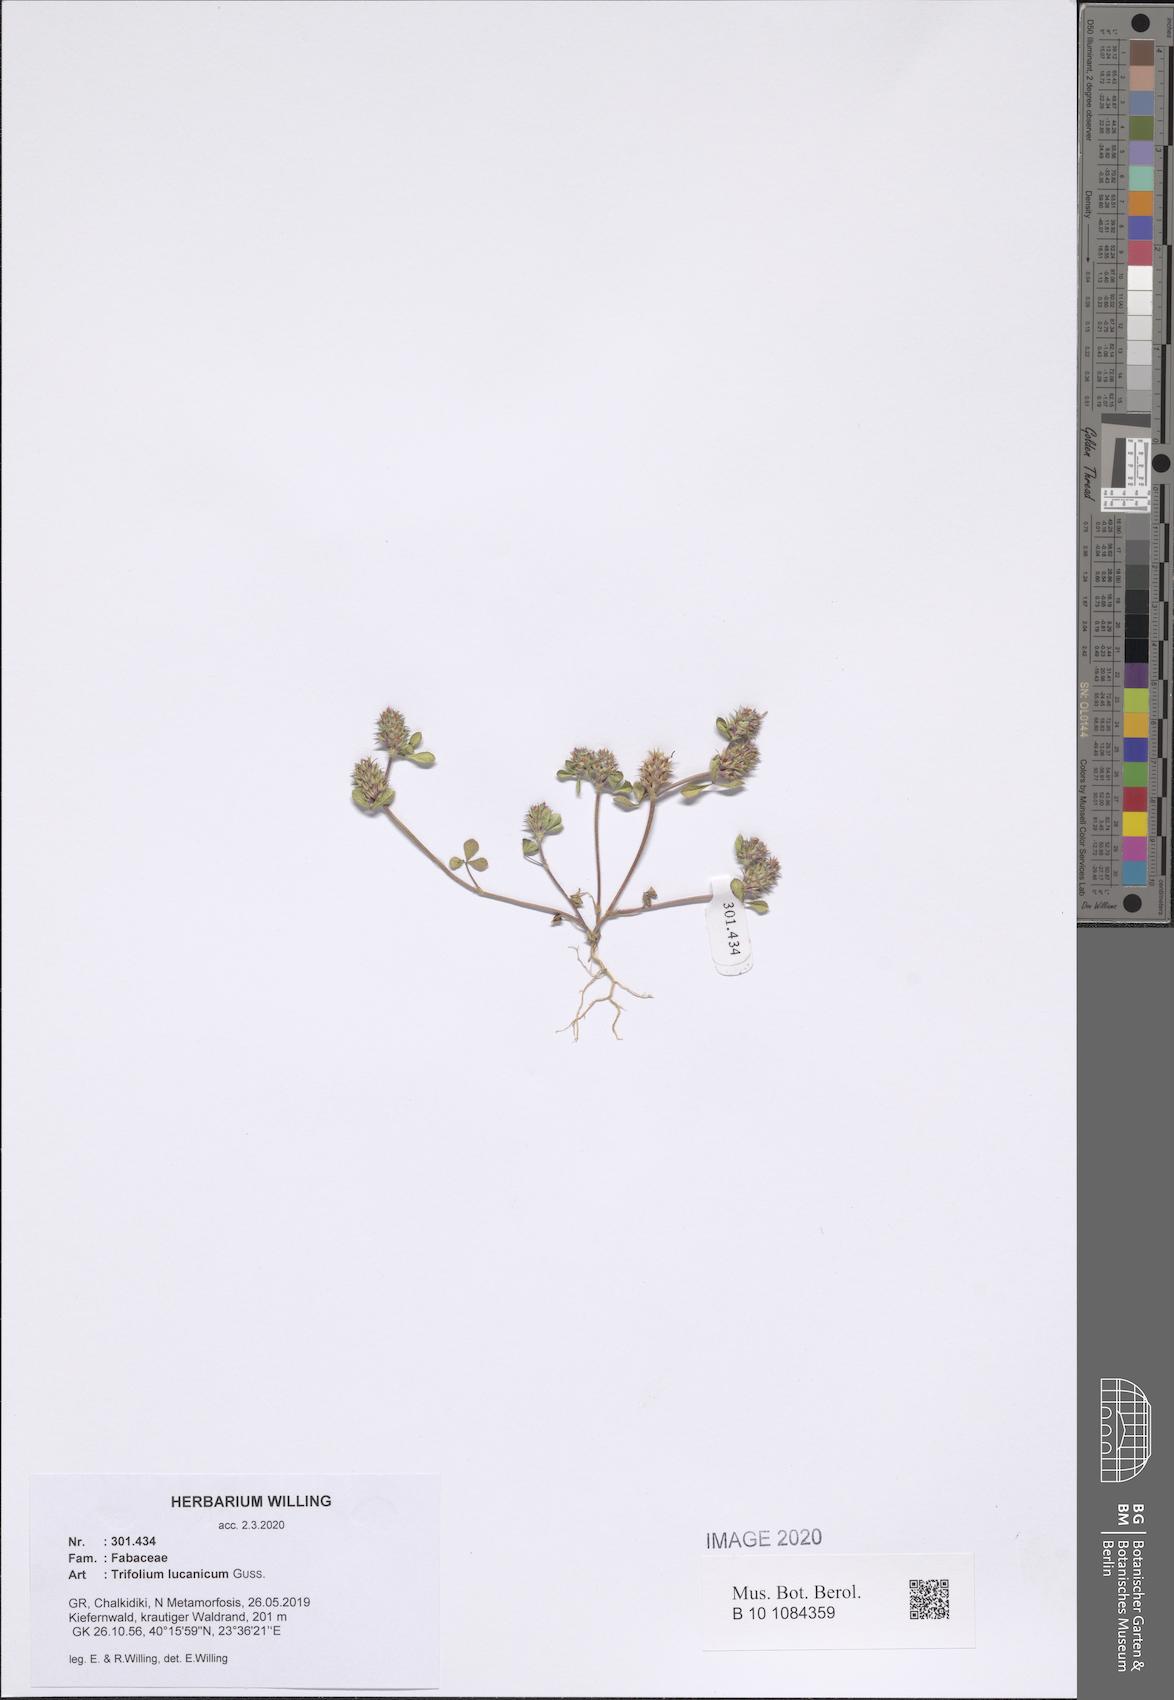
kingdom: Plantae
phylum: Tracheophyta
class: Magnoliopsida
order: Fabales
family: Fabaceae
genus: Trifolium
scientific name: Trifolium lucanicum
